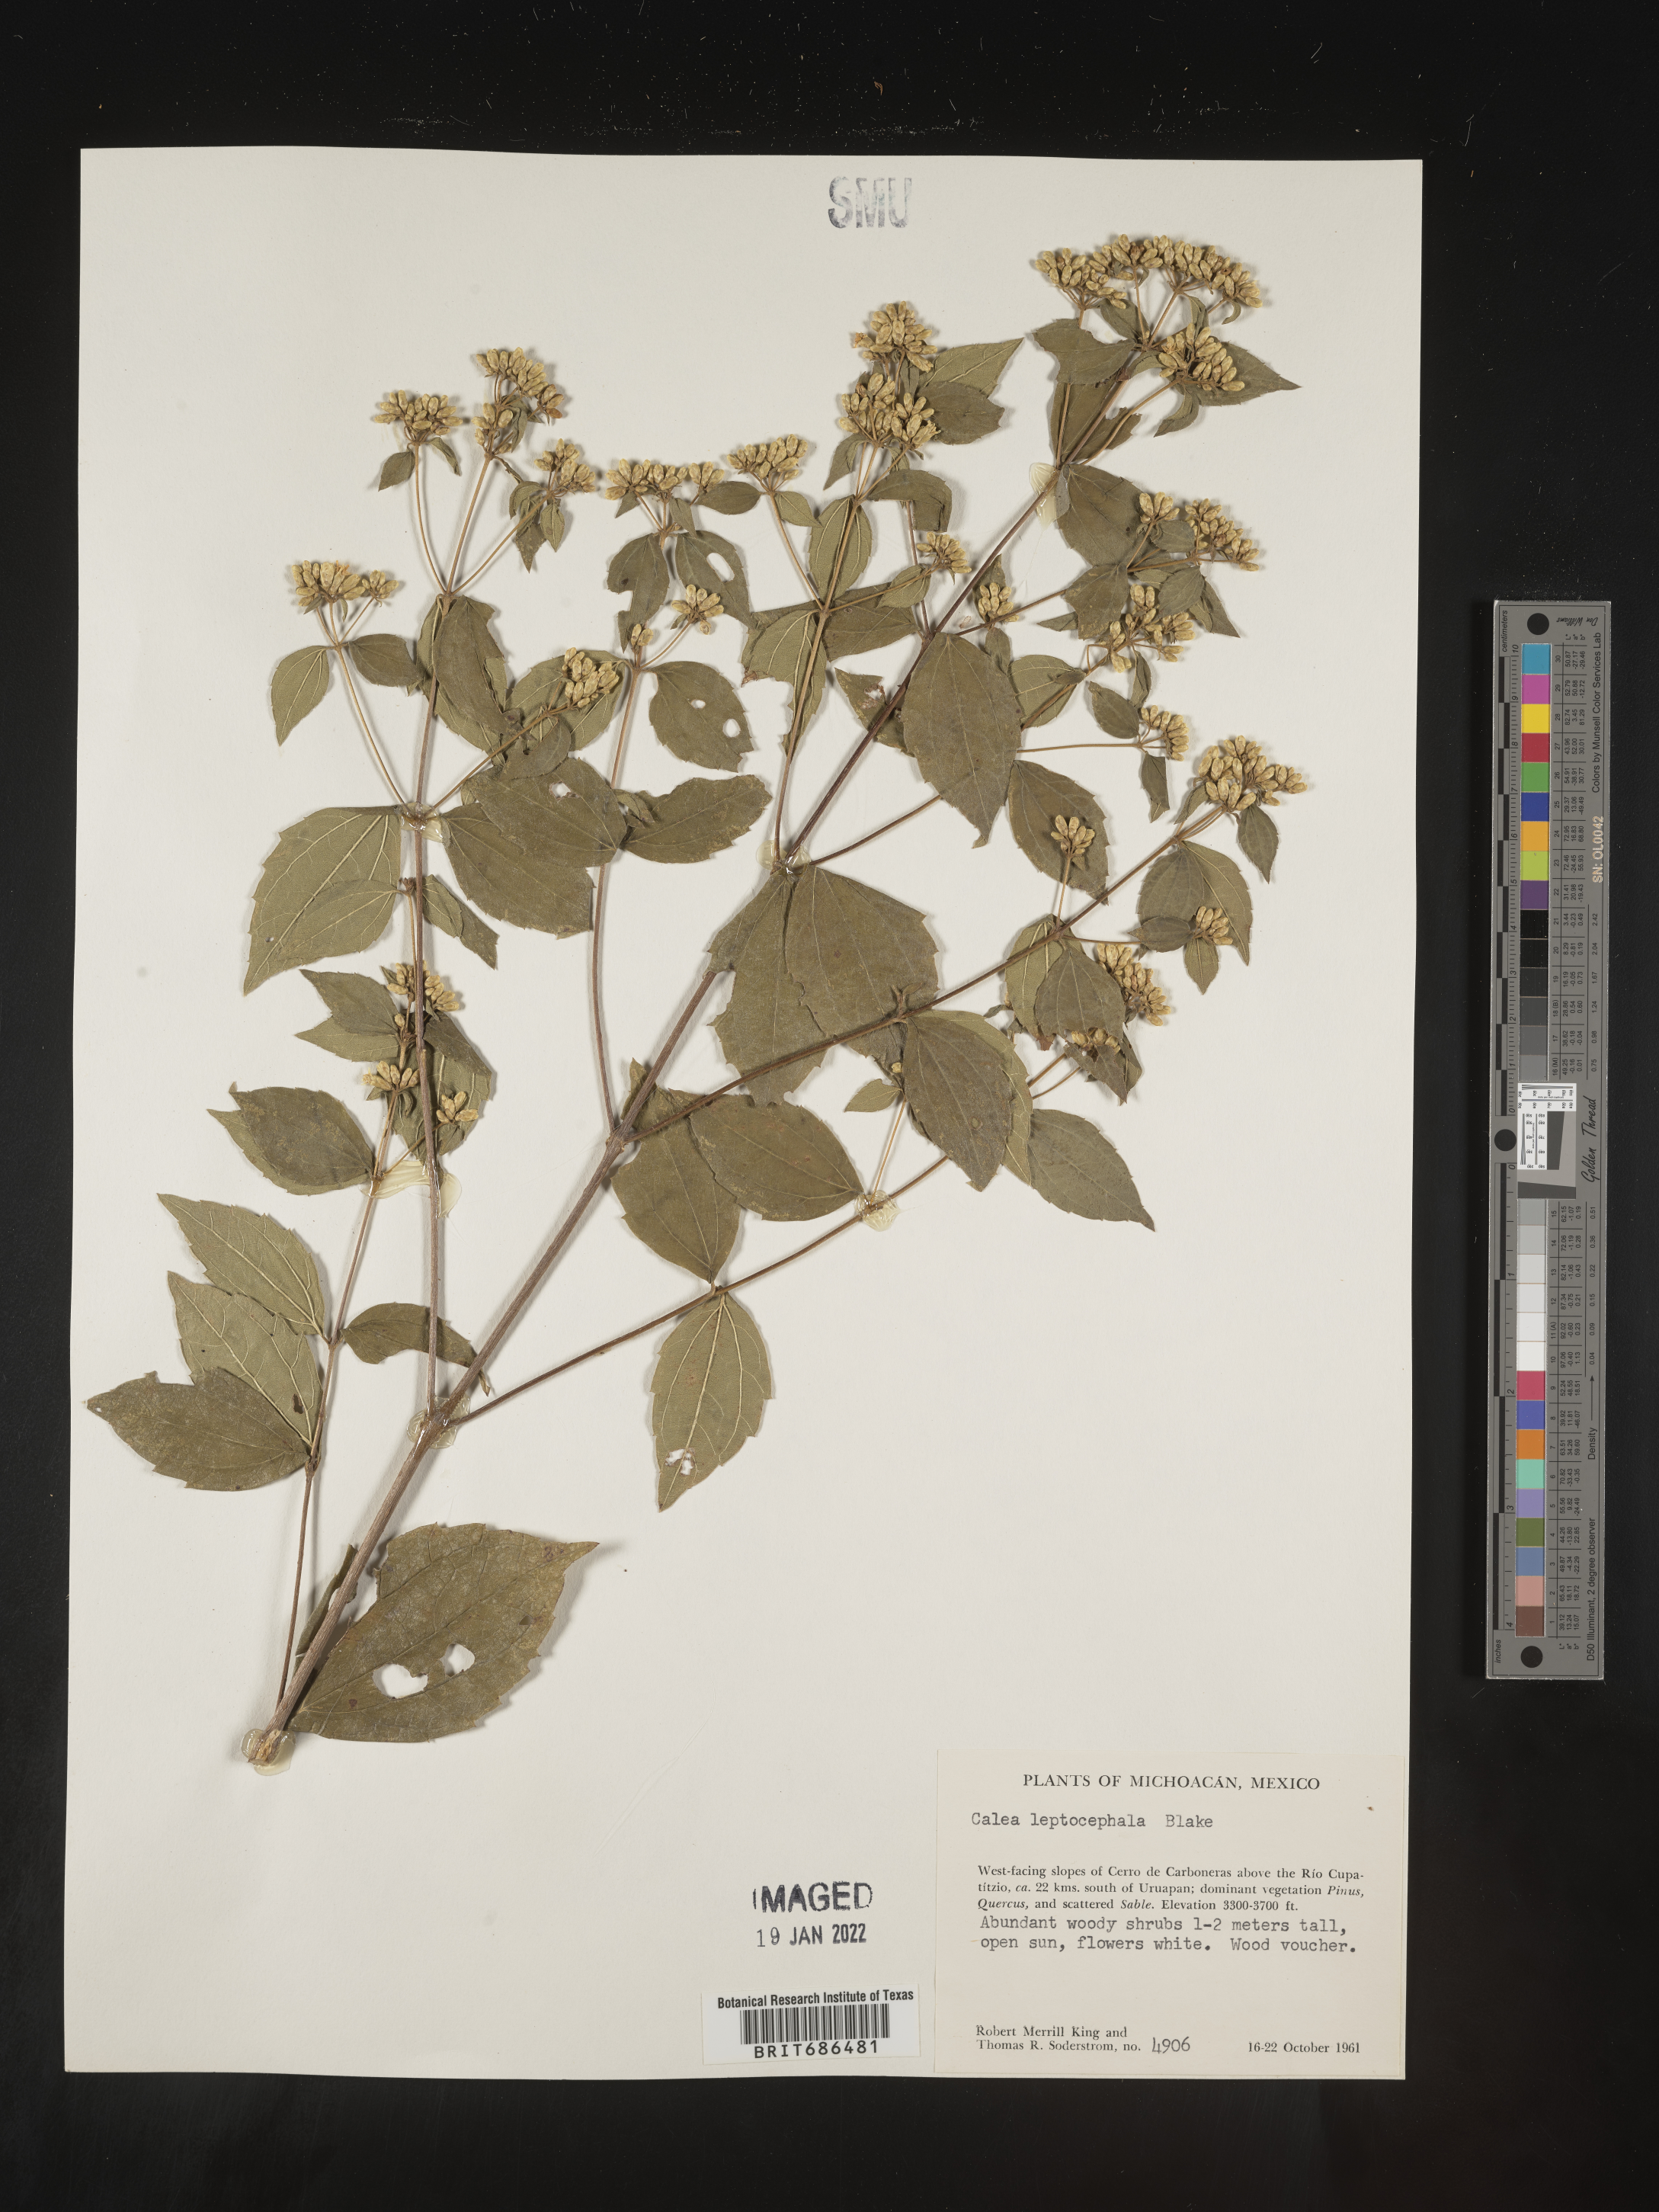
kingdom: Plantae
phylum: Tracheophyta
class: Magnoliopsida
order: Asterales
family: Asteraceae
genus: Calea
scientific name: Calea oliveri
